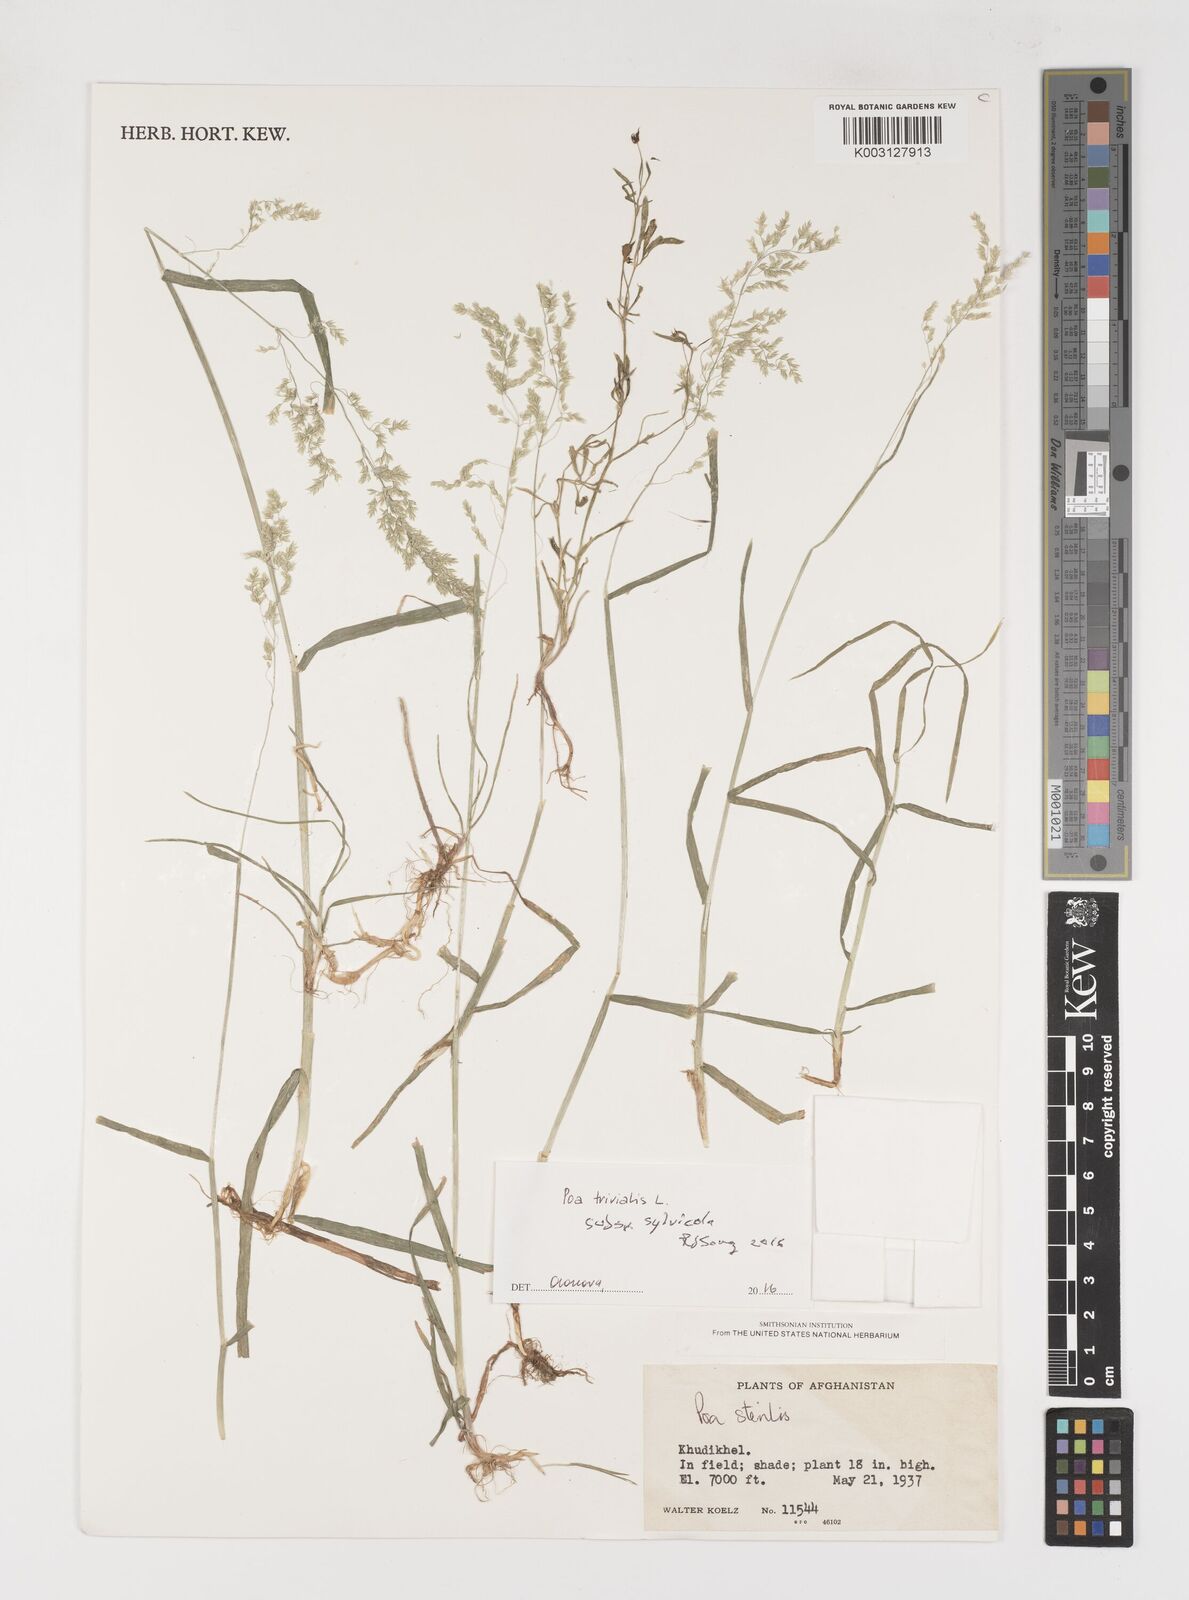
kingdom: Plantae
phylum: Tracheophyta
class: Liliopsida
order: Poales
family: Poaceae
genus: Poa
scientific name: Poa trivialis
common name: Rough bluegrass
